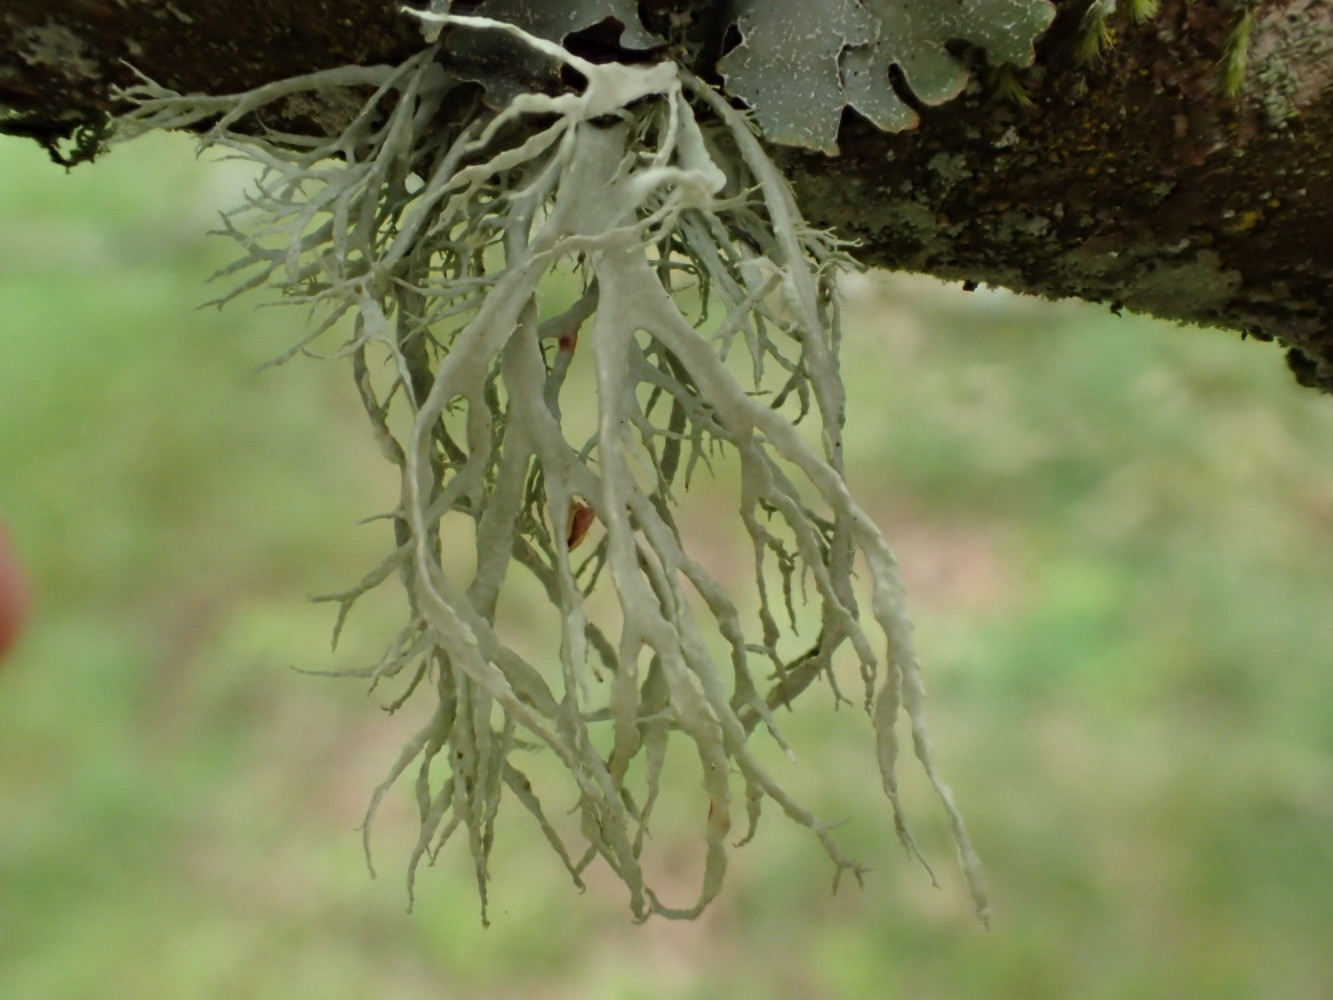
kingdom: Fungi
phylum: Ascomycota
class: Lecanoromycetes
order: Lecanorales
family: Ramalinaceae
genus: Ramalina
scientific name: Ramalina farinacea
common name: melet grenlav
